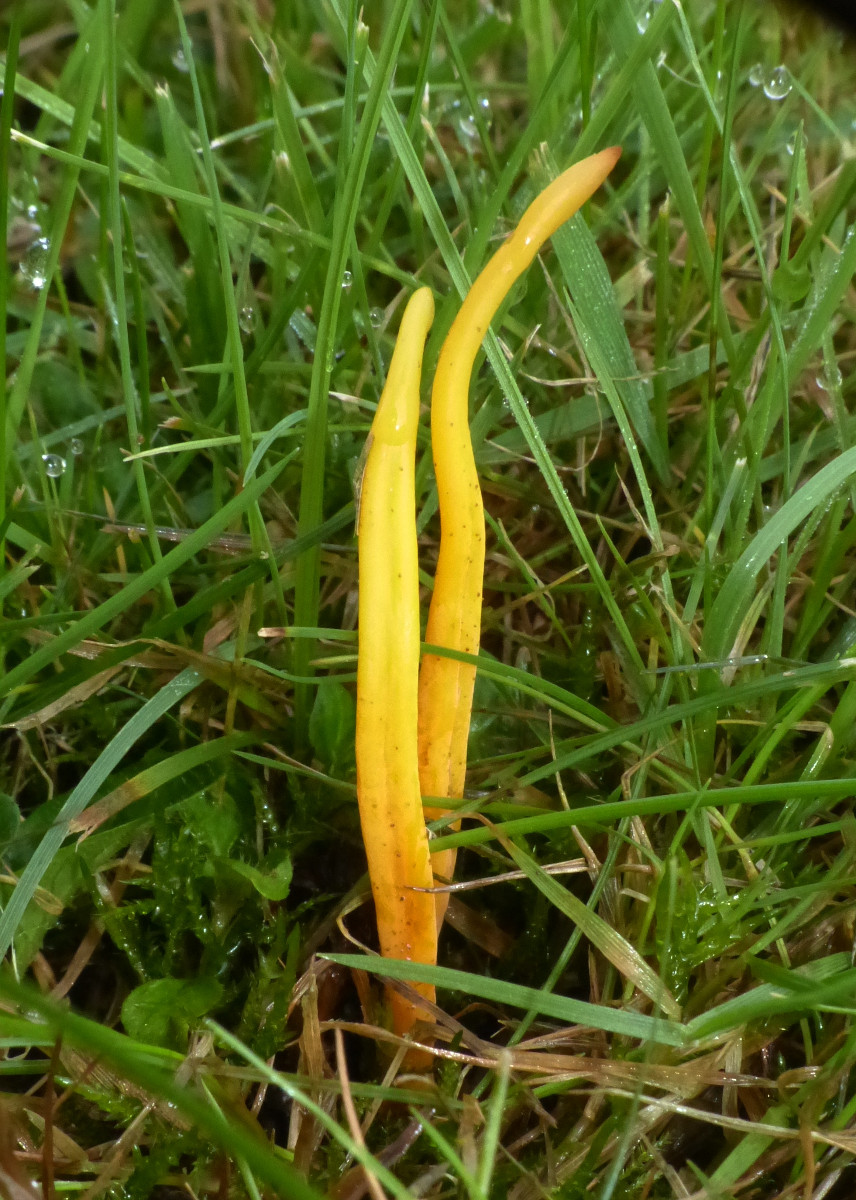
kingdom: Fungi
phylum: Basidiomycota
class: Agaricomycetes
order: Agaricales
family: Clavariaceae
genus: Clavulinopsis
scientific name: Clavulinopsis laeticolor
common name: flamme-køllesvamp
